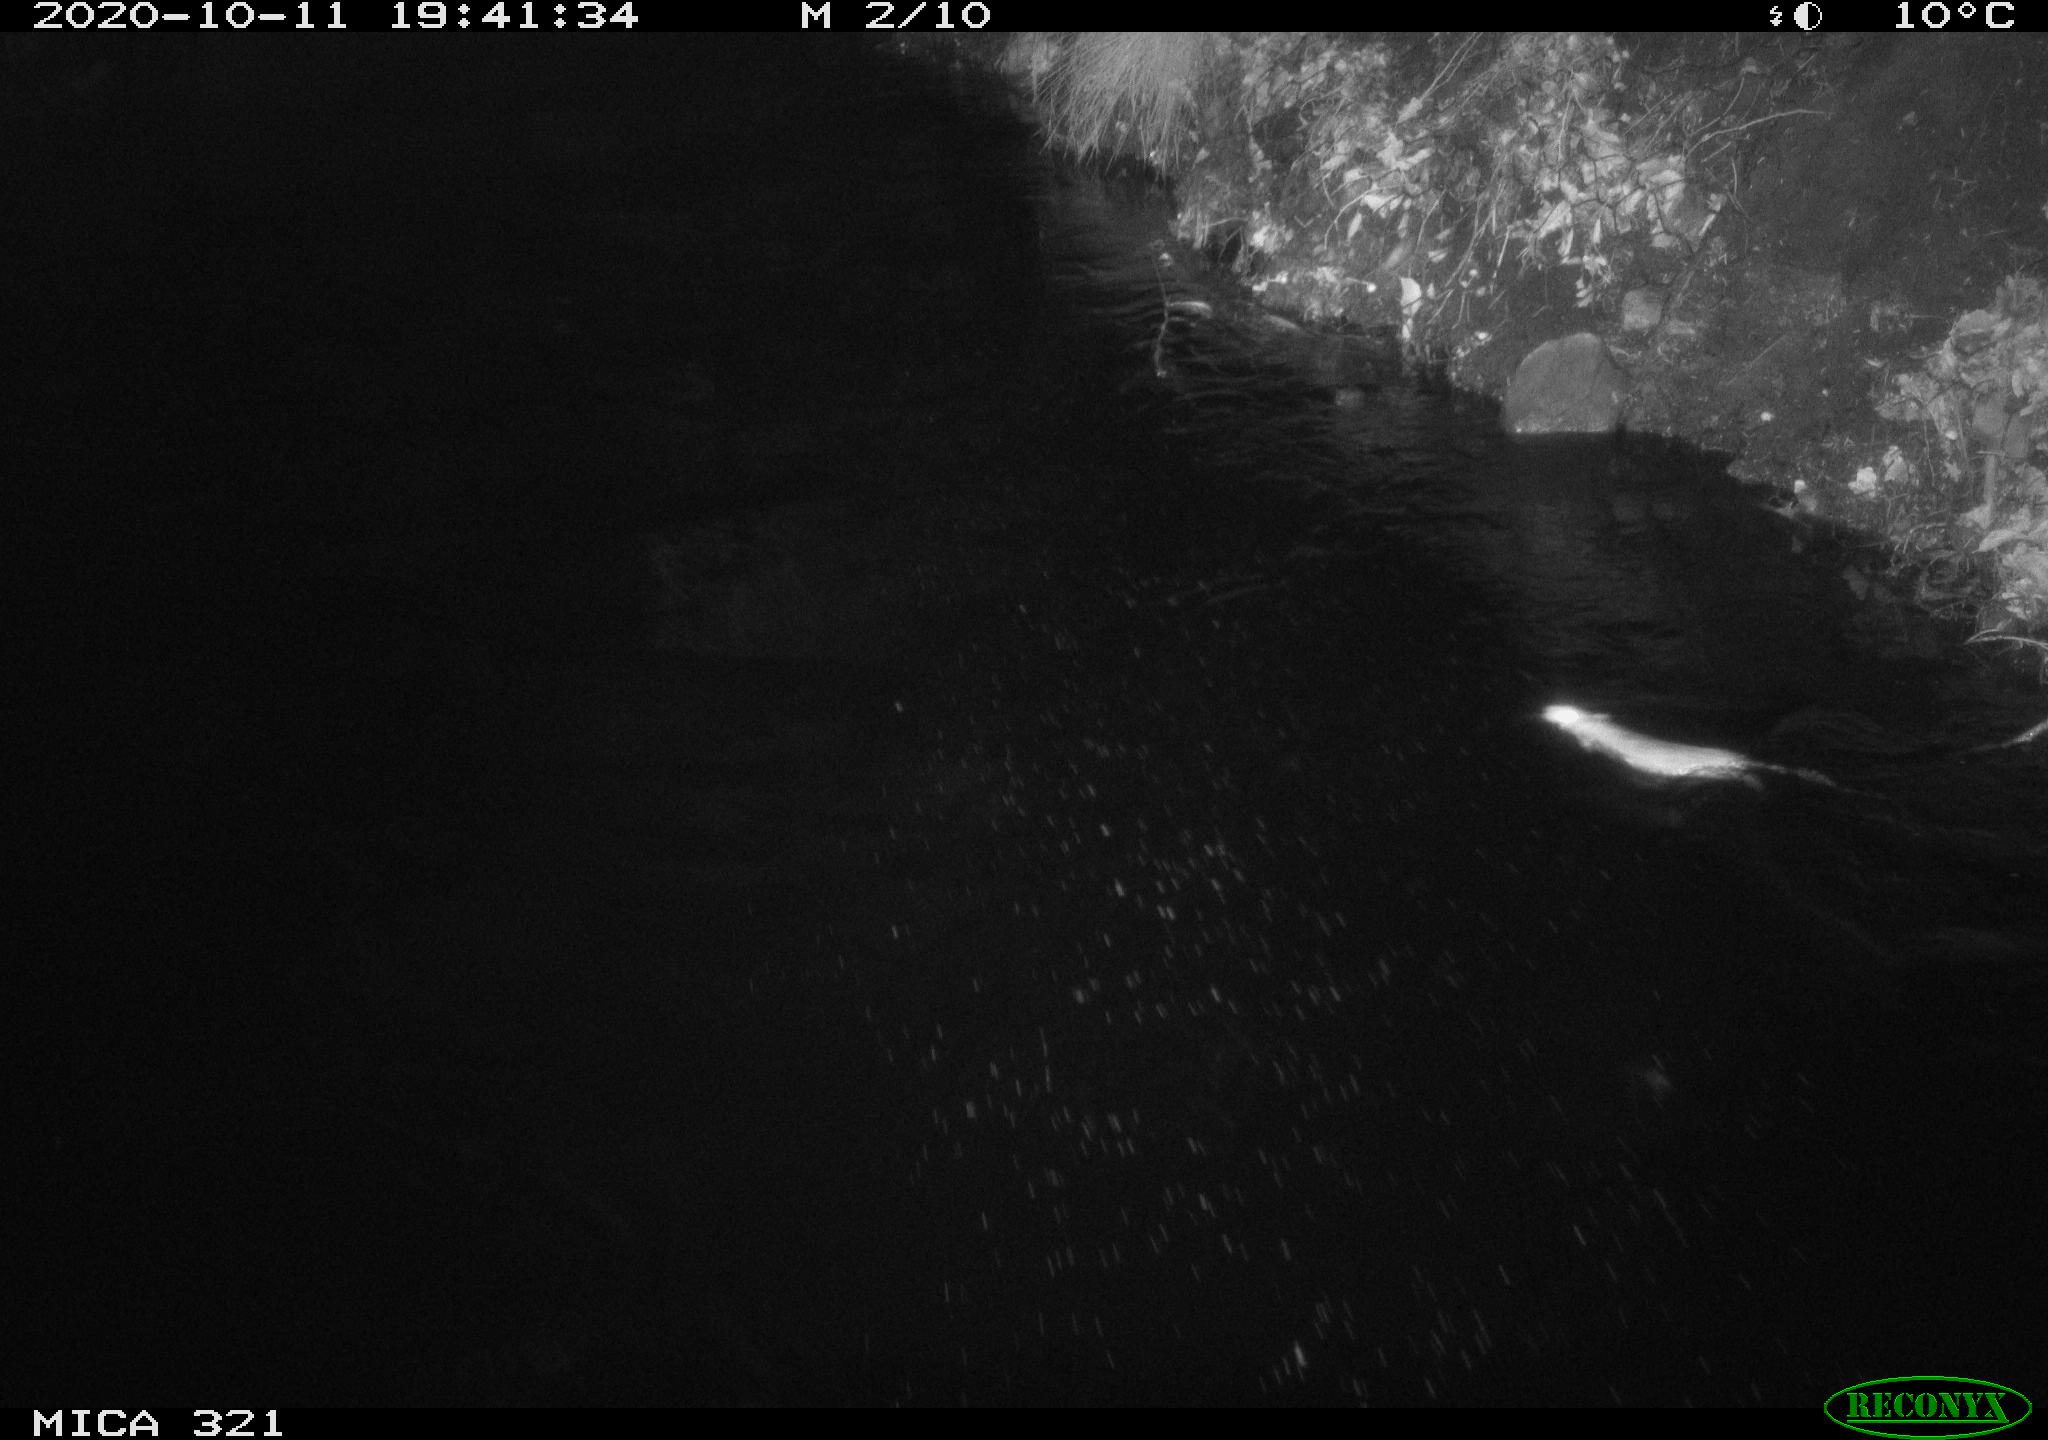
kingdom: Animalia
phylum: Chordata
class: Mammalia
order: Rodentia
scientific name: Rodentia
